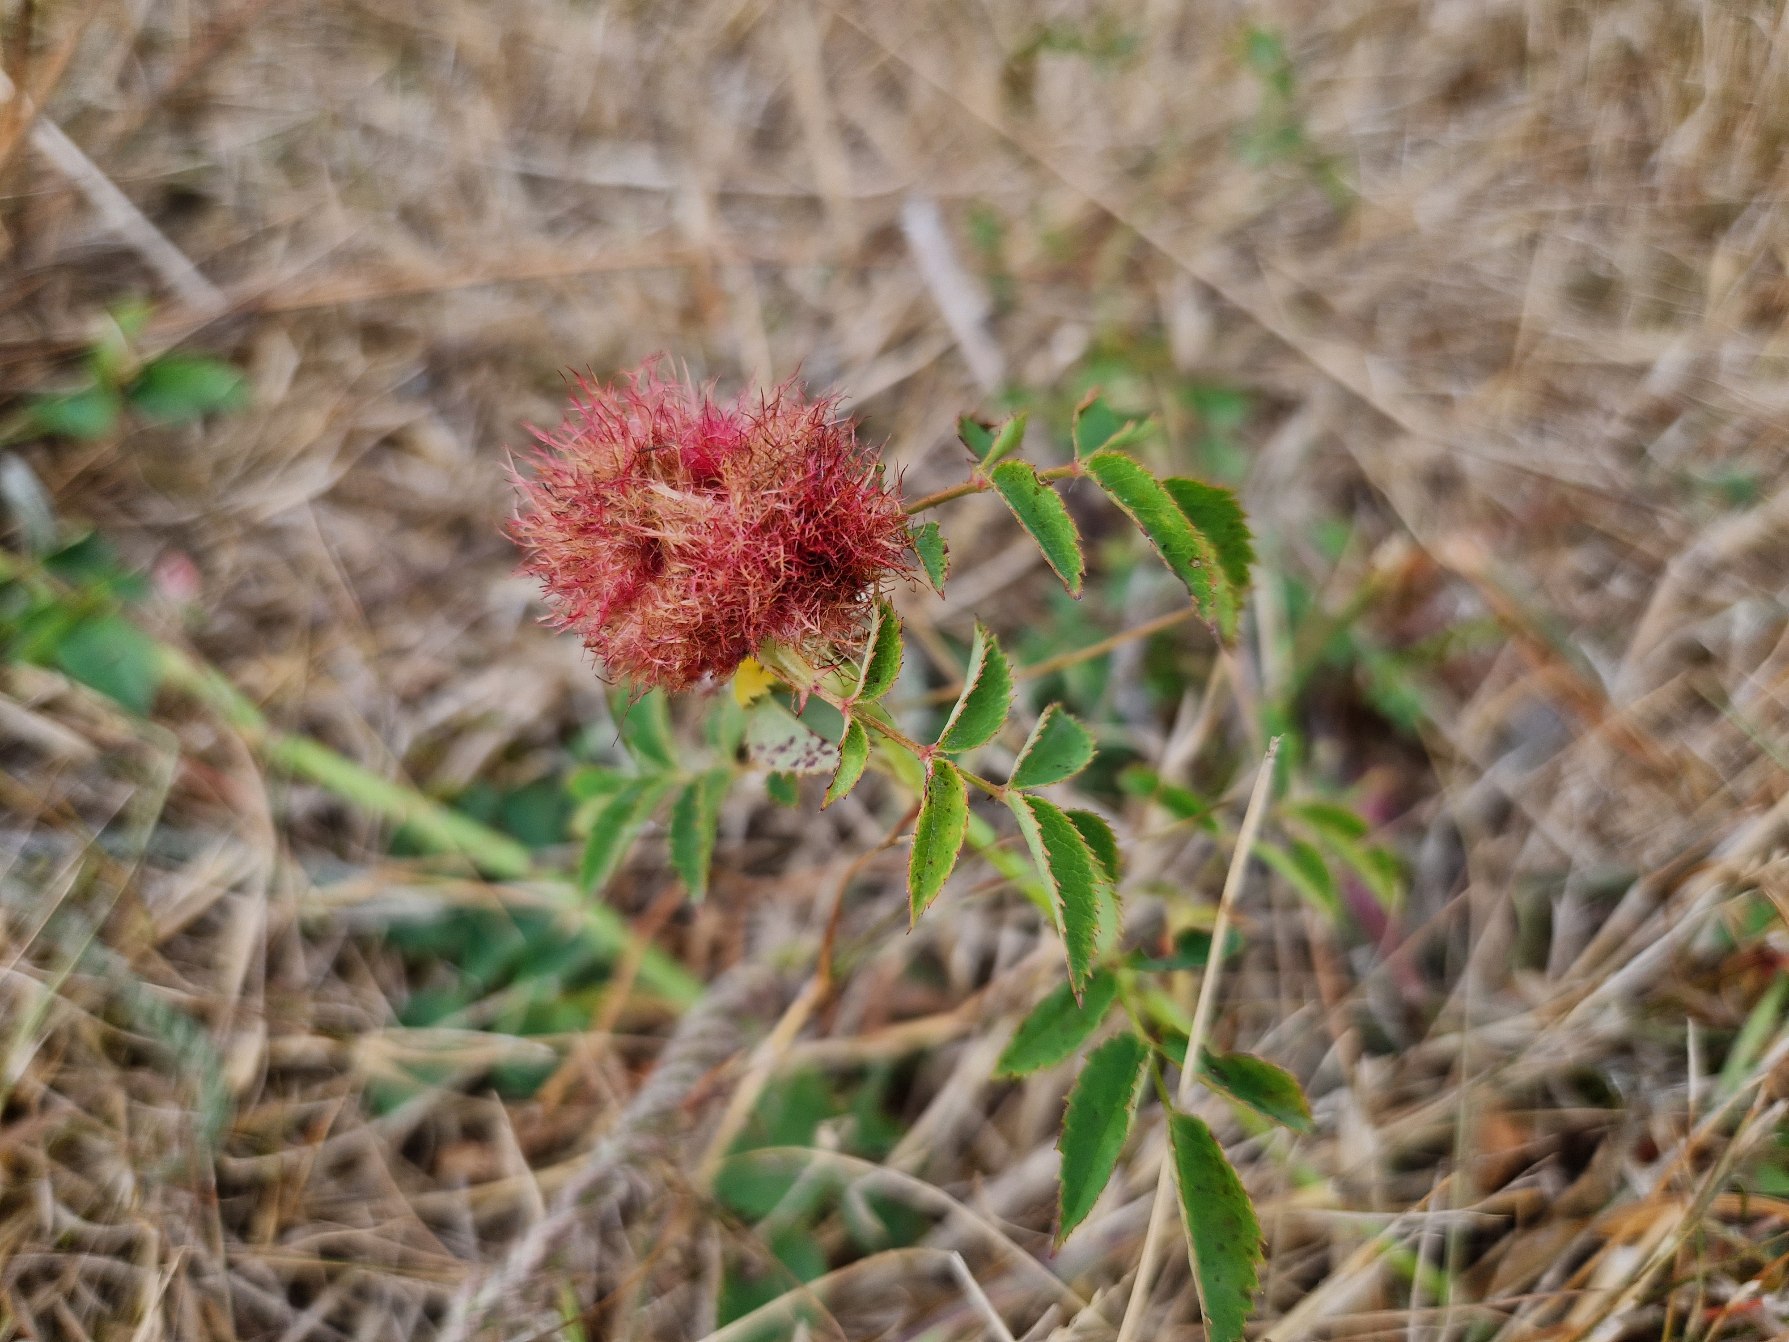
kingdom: Animalia
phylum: Arthropoda
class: Insecta
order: Hymenoptera
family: Cynipidae
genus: Diplolepis
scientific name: Diplolepis rosae
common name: Bedeguargalhveps
